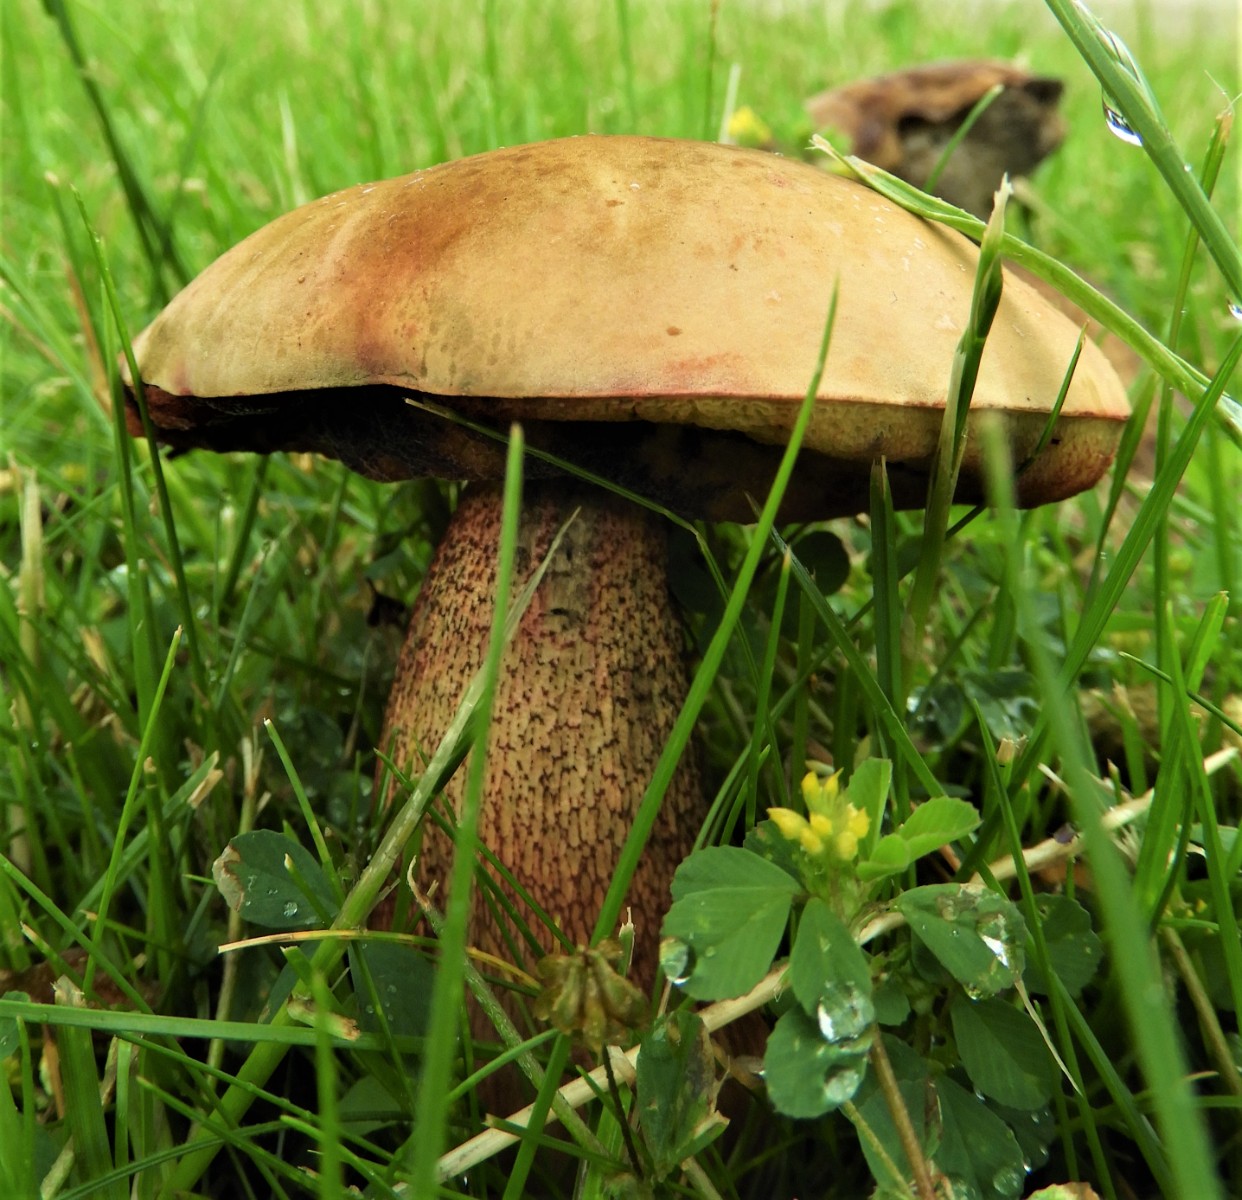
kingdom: Fungi
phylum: Basidiomycota
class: Agaricomycetes
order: Boletales
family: Boletaceae
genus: Suillellus
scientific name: Suillellus luridus
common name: netstokket indigorørhat
